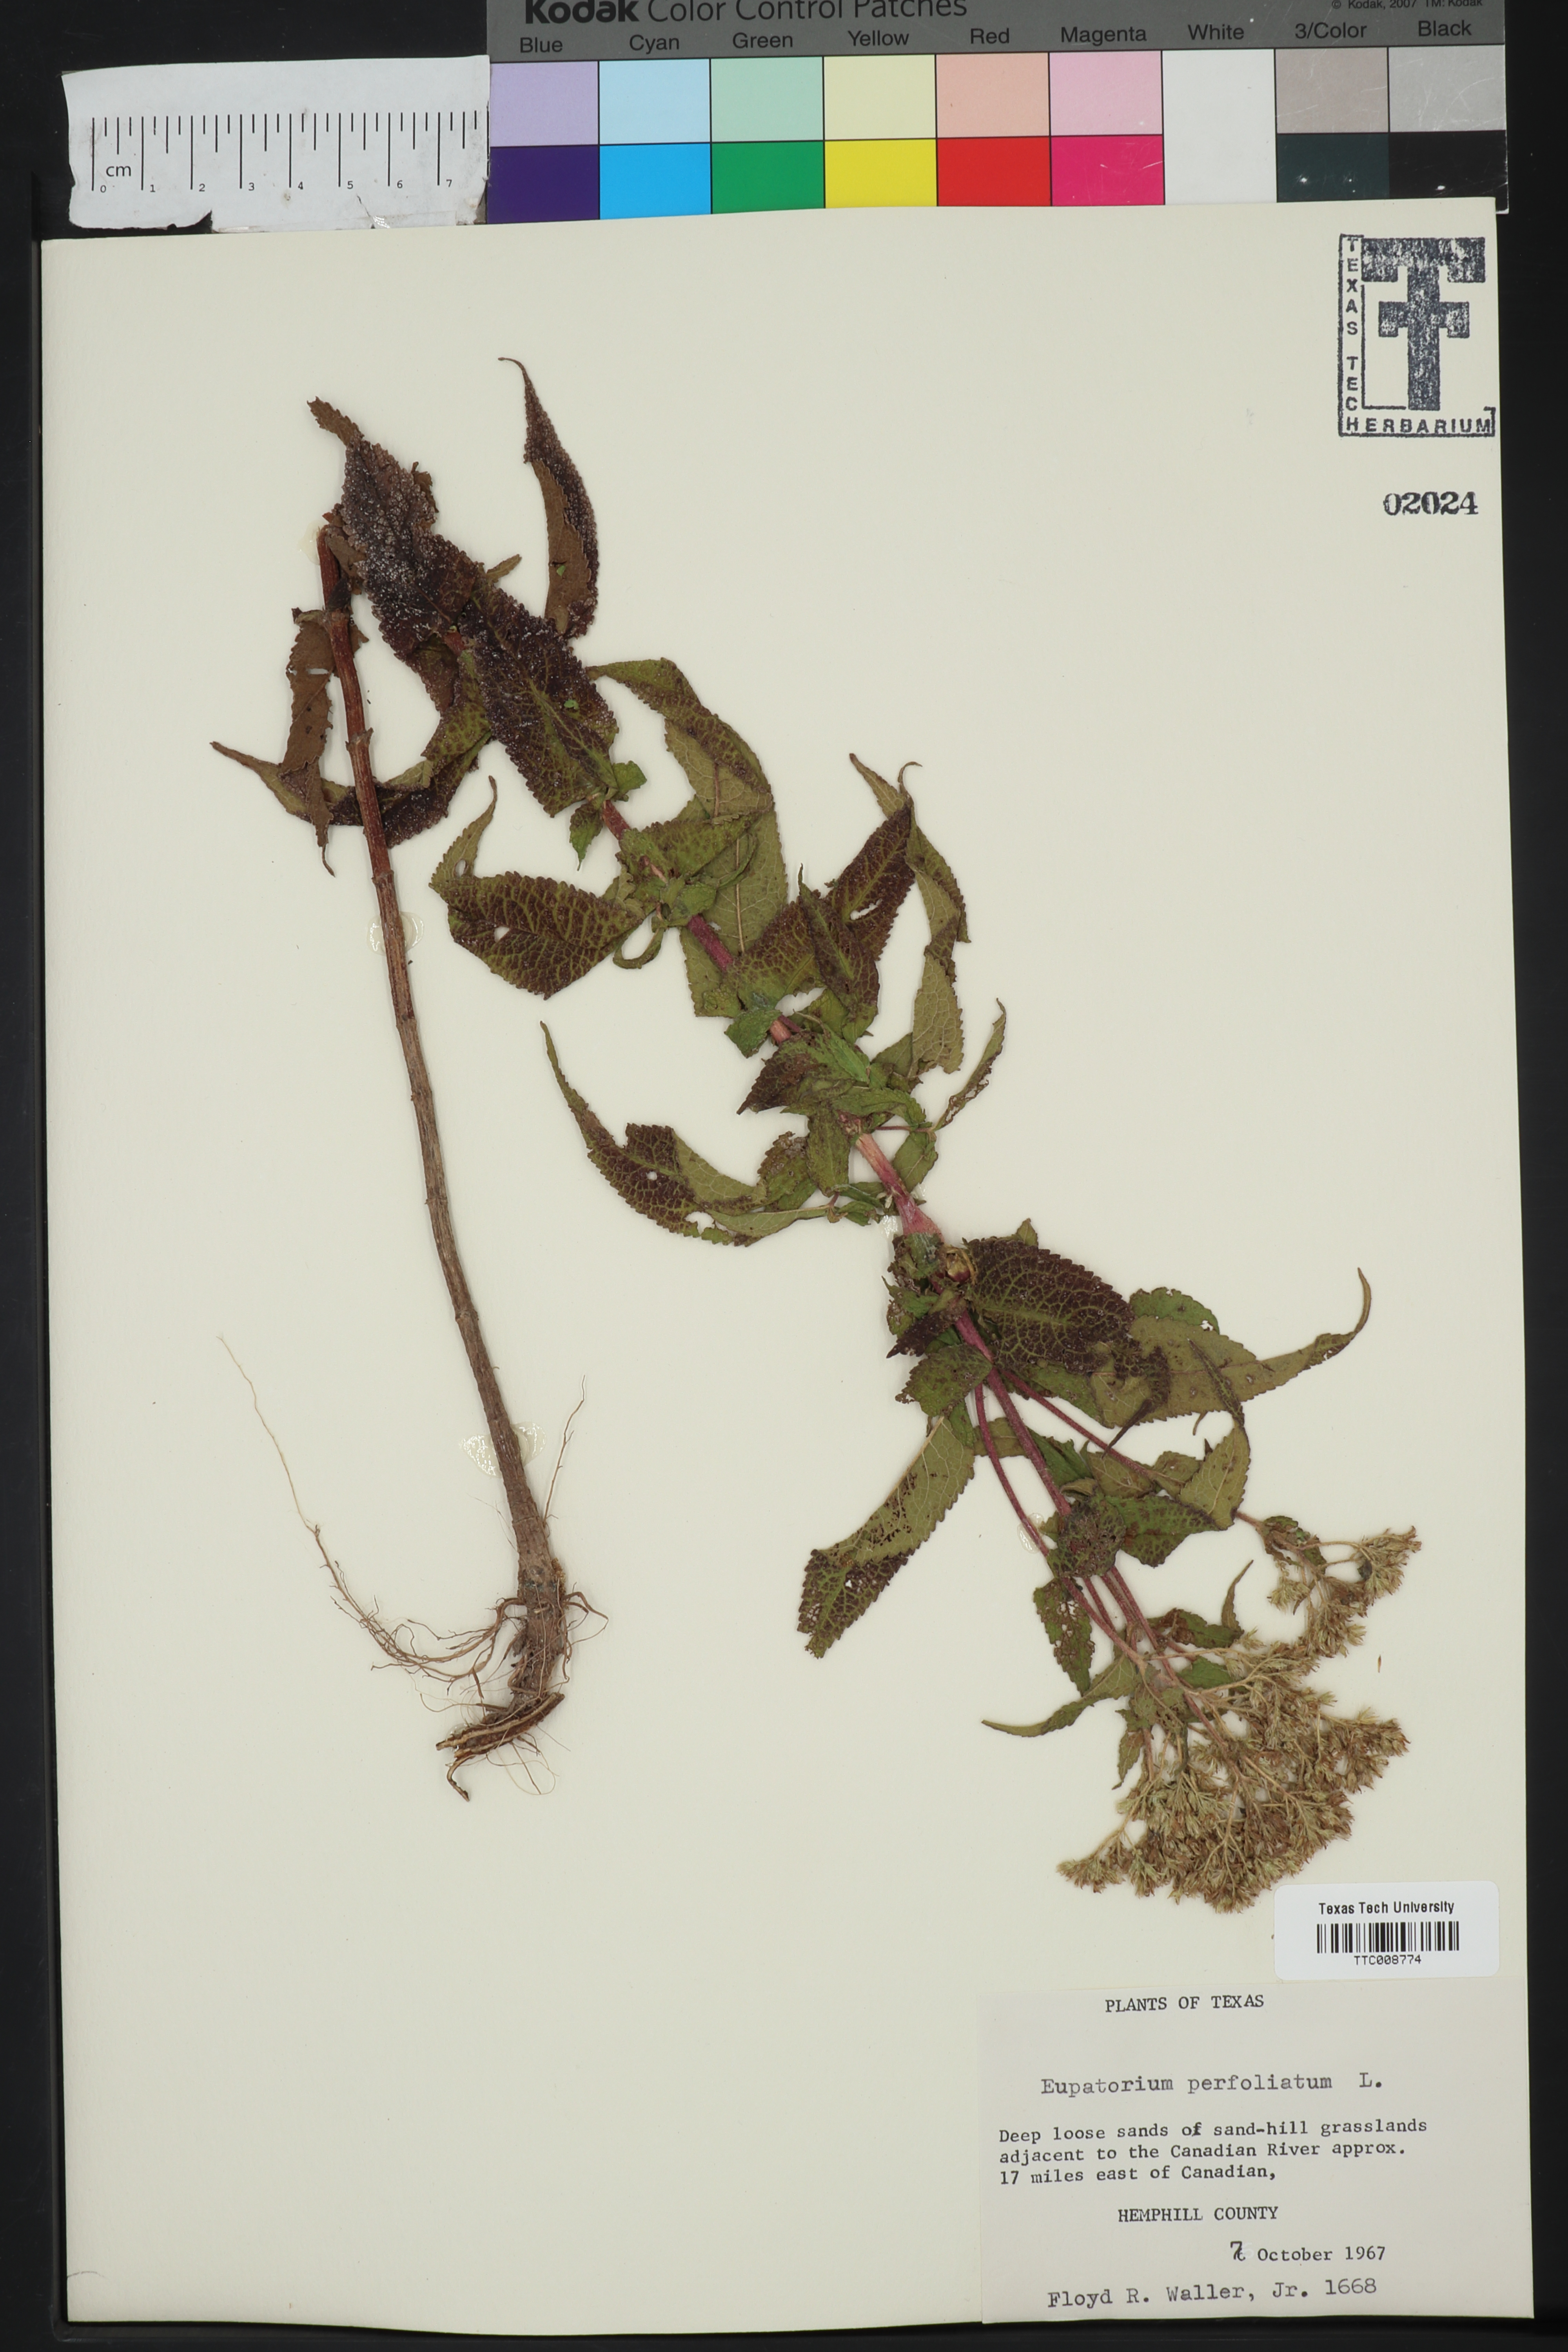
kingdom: Plantae
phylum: Tracheophyta
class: Magnoliopsida
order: Asterales
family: Asteraceae
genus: Eupatorium
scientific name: Eupatorium perfoliatum
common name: Boneset
